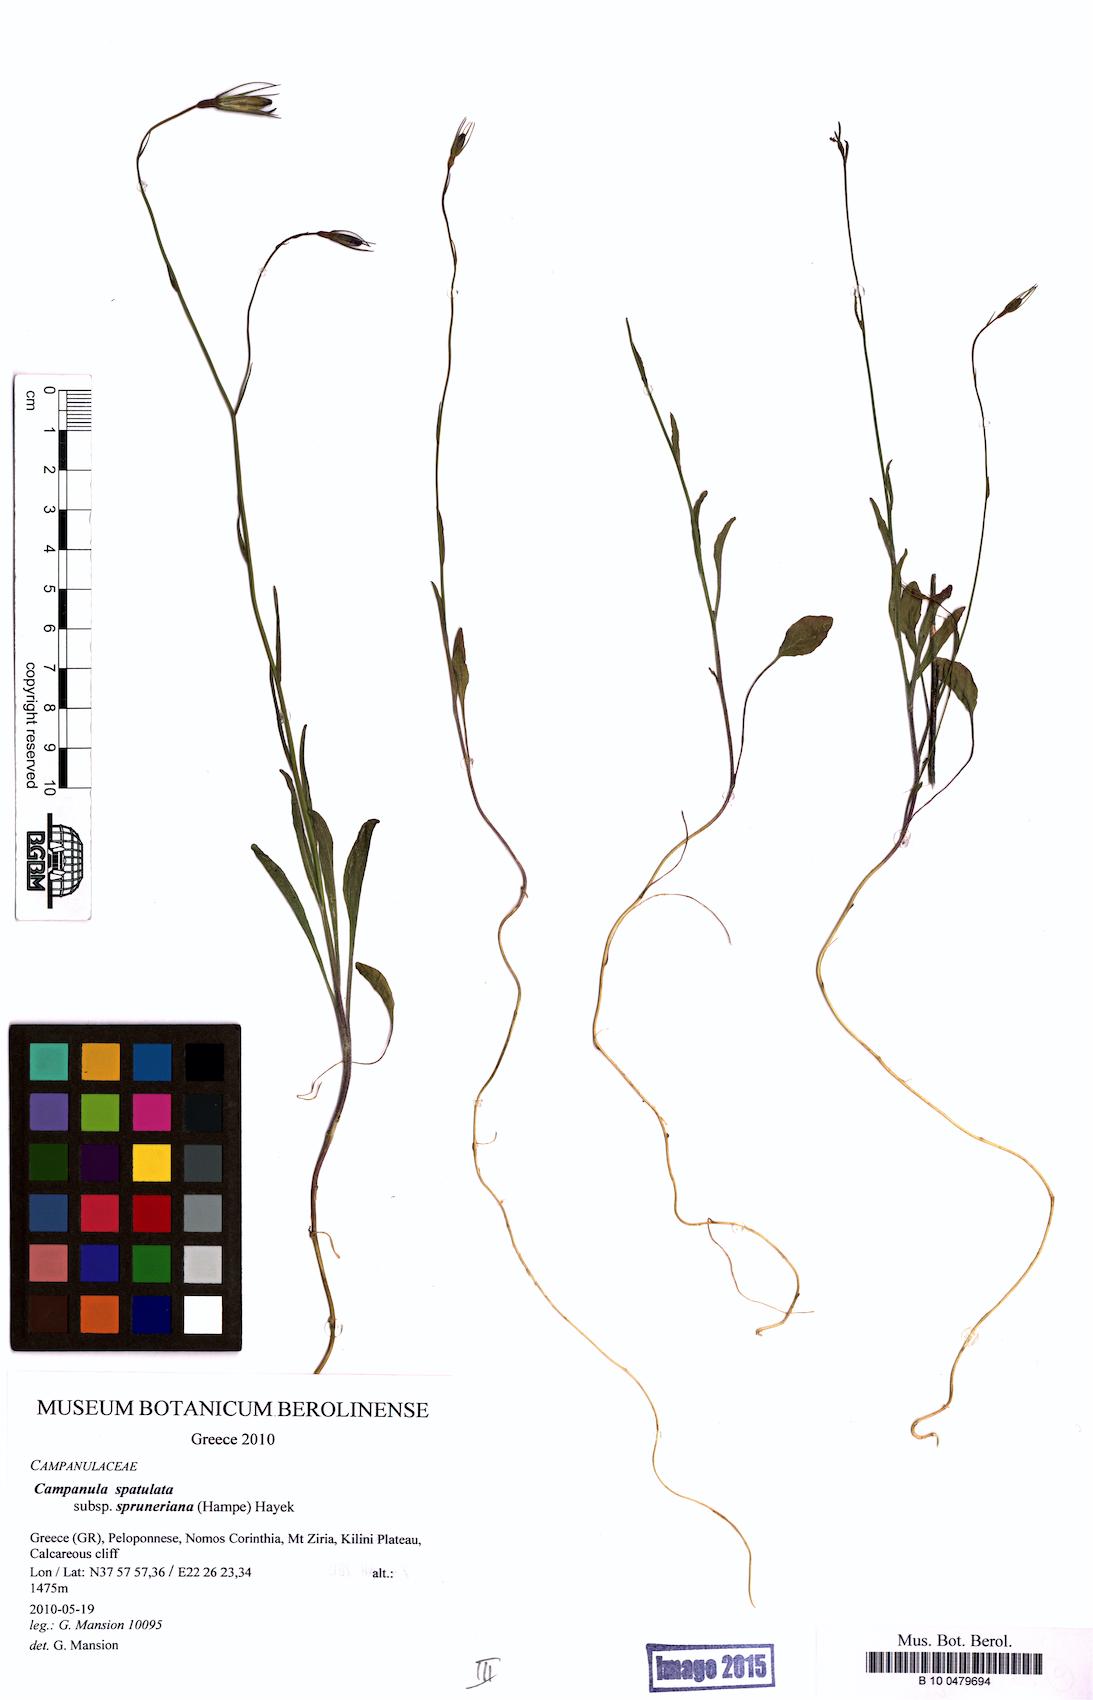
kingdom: Plantae
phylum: Tracheophyta
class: Magnoliopsida
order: Asterales
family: Campanulaceae
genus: Campanula
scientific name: Campanula spatulata
